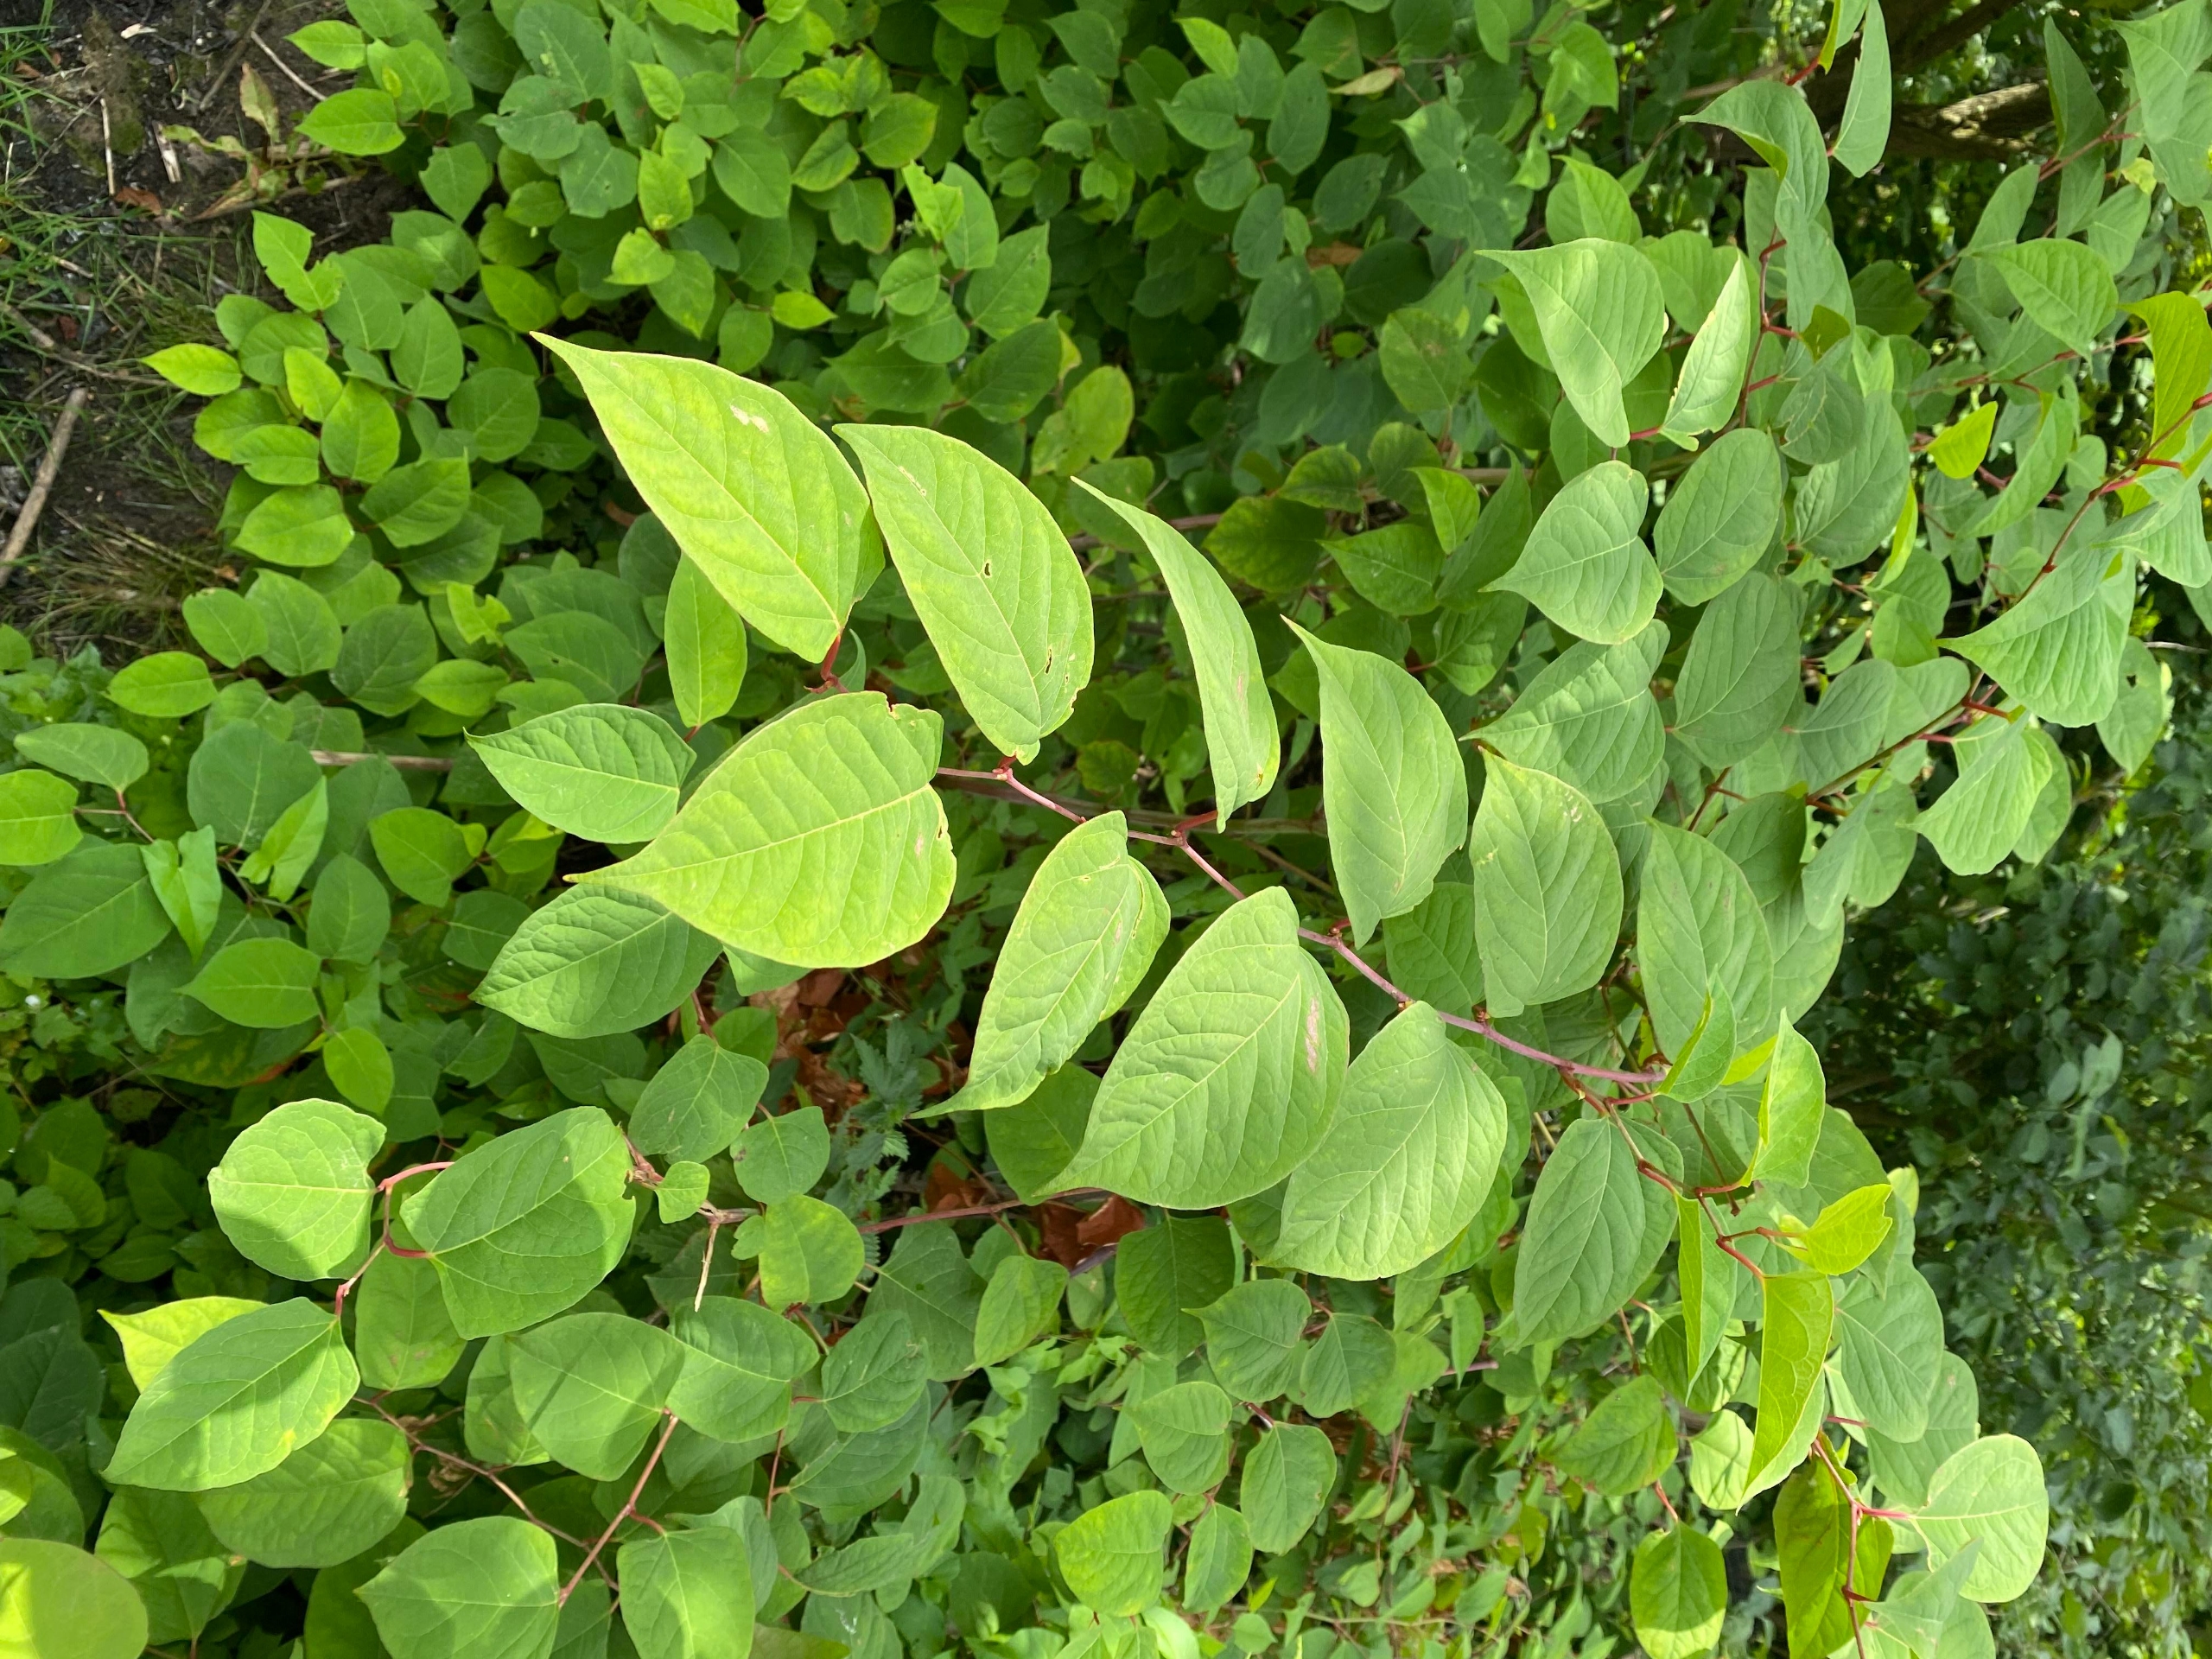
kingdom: Plantae
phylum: Tracheophyta
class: Magnoliopsida
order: Caryophyllales
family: Polygonaceae
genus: Reynoutria
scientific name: Reynoutria japonica
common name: Japan-pileurt
